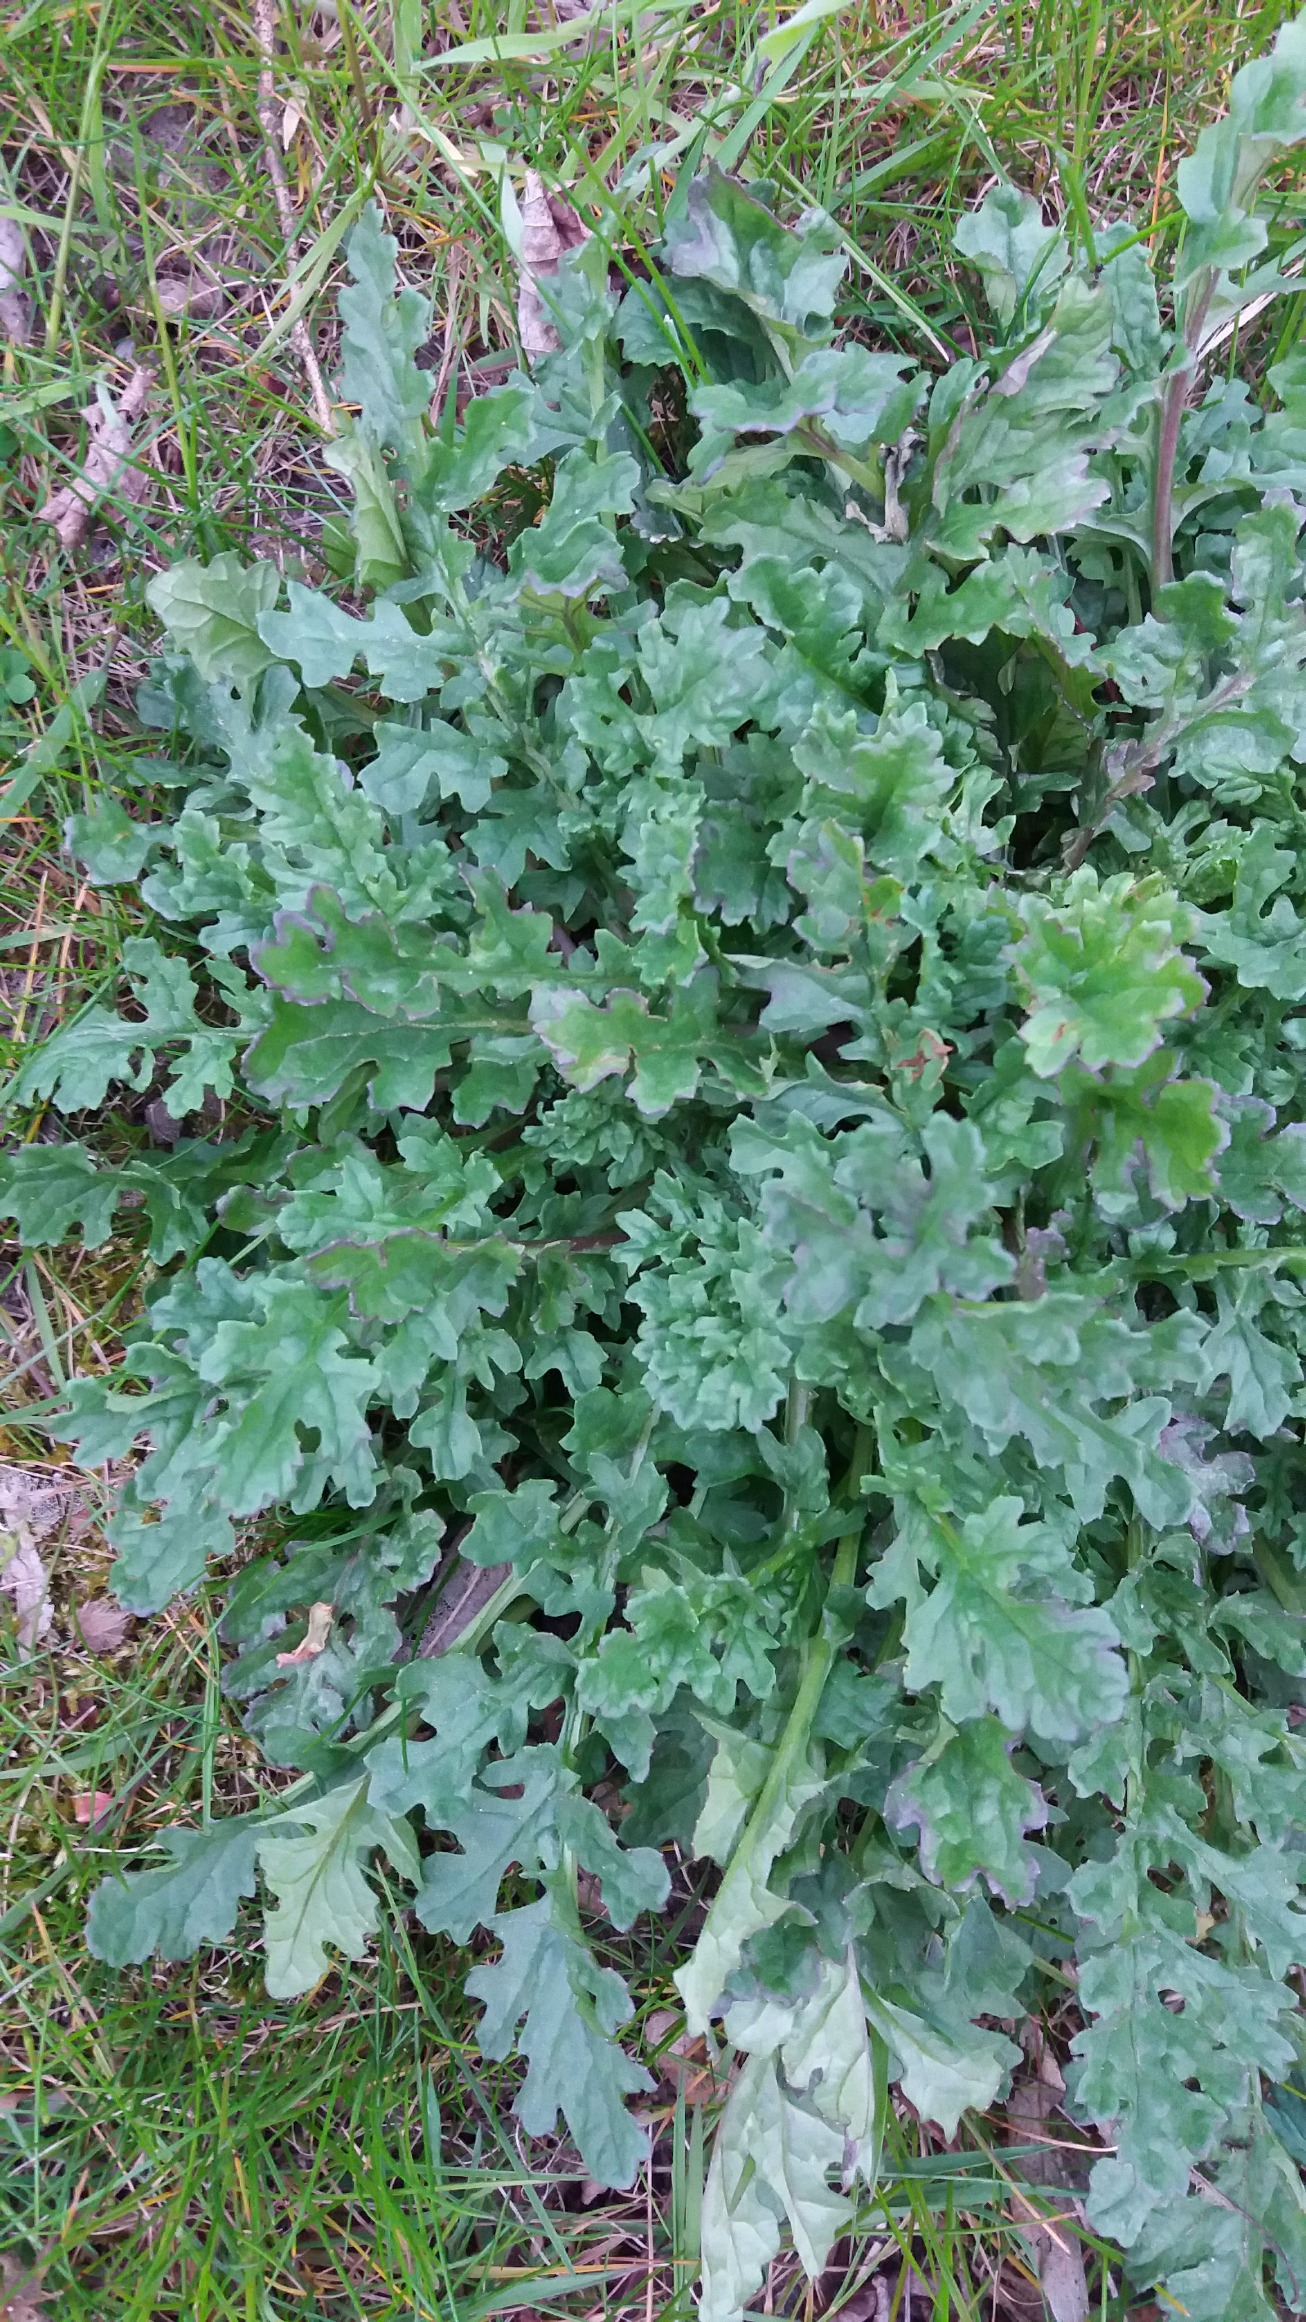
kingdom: Plantae
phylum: Tracheophyta
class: Magnoliopsida
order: Asterales
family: Asteraceae
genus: Jacobaea
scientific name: Jacobaea vulgaris
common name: Eng-brandbæger
